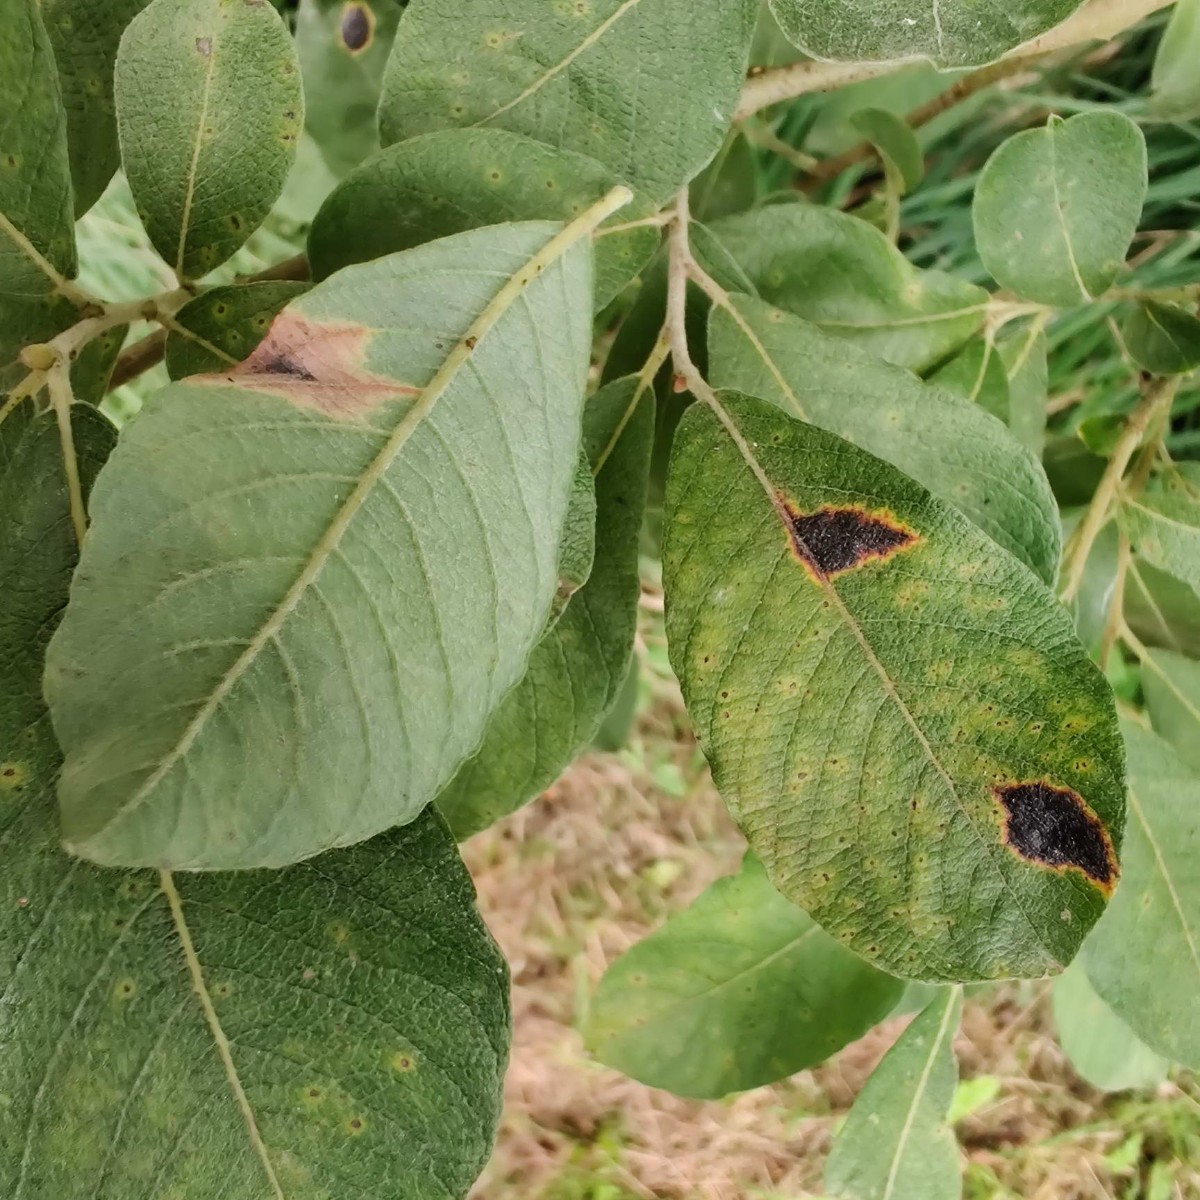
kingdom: Fungi
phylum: Ascomycota
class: Leotiomycetes
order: Rhytismatales
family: Rhytismataceae
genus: Rhytisma
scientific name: Rhytisma salicinum
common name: pile-rynkeplet
